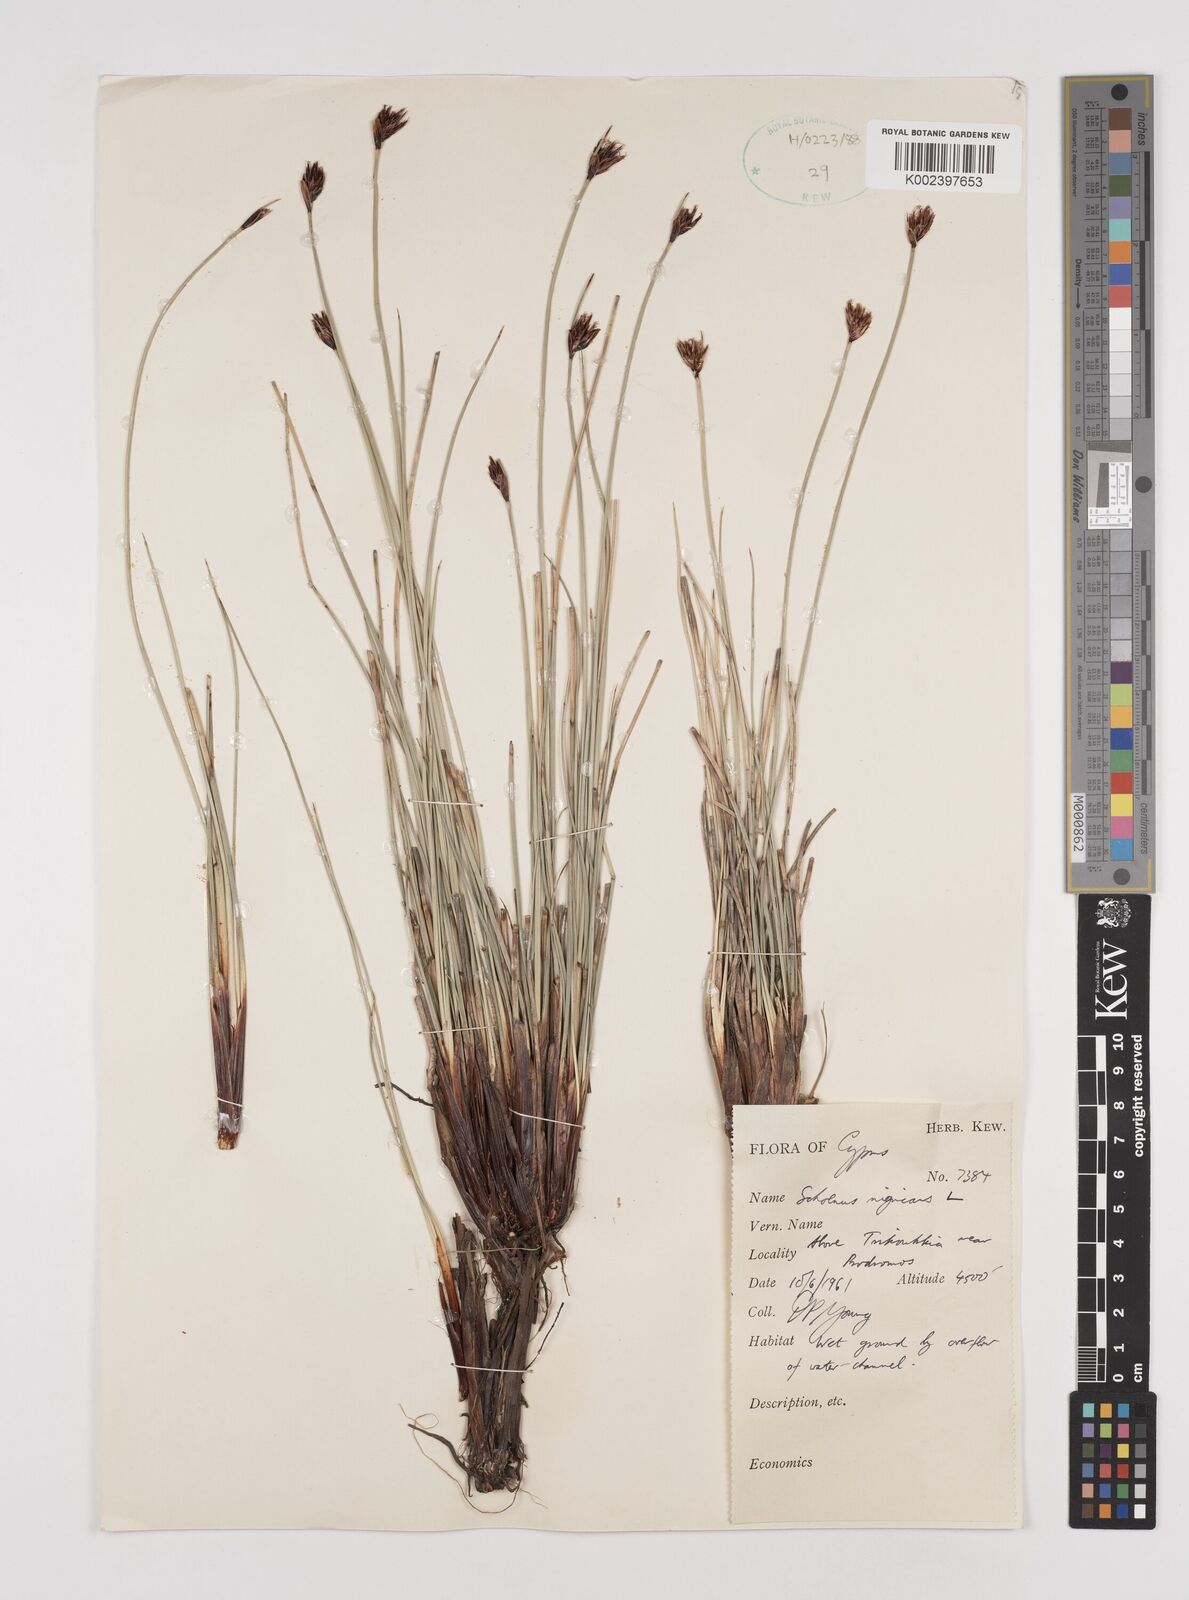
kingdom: Plantae
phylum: Tracheophyta
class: Liliopsida
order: Poales
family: Cyperaceae
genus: Schoenus
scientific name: Schoenus nigricans
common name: Black bog-rush
